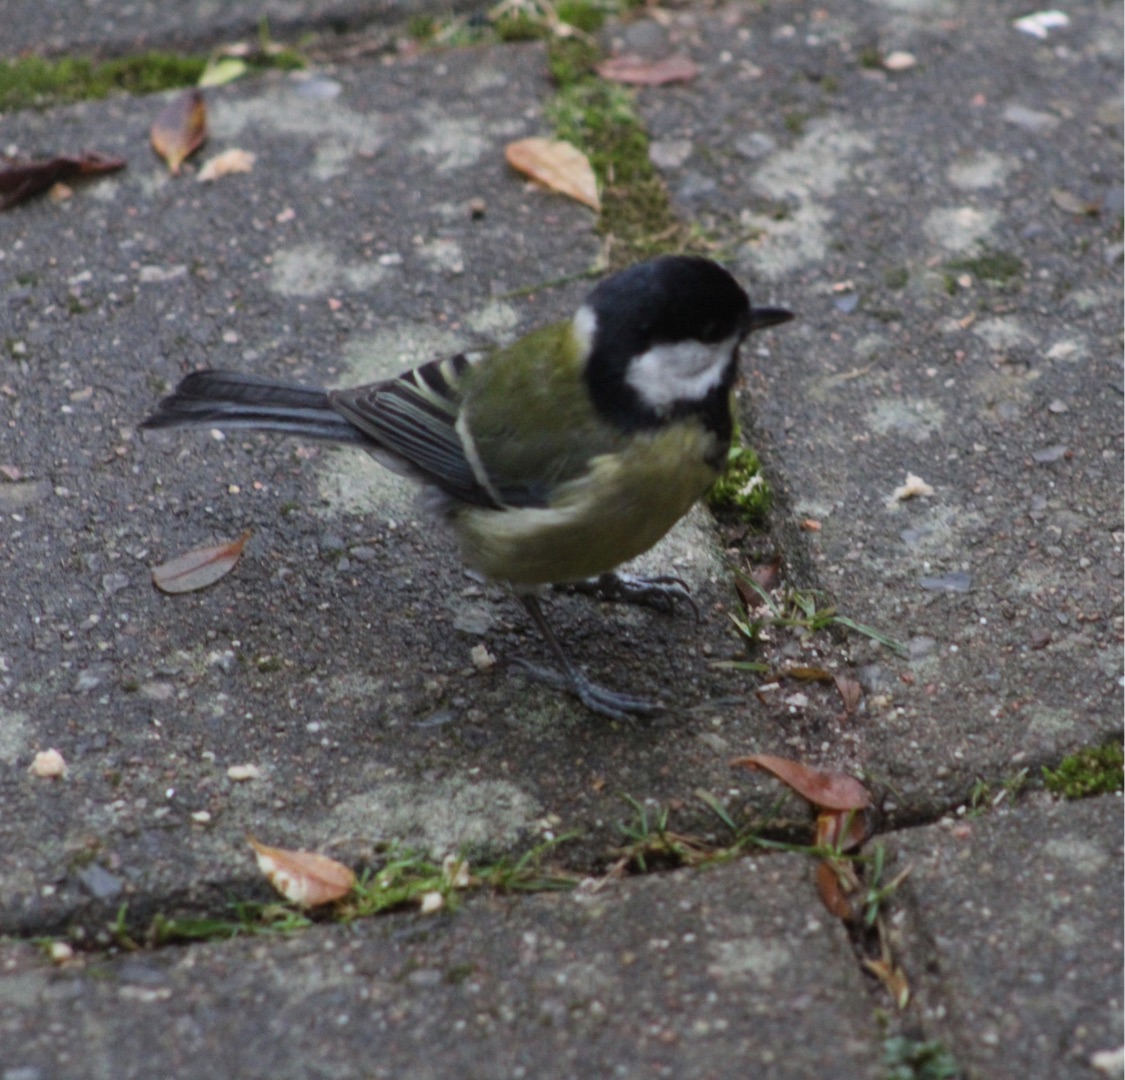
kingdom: Animalia
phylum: Chordata
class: Aves
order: Passeriformes
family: Paridae
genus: Parus
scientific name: Parus major
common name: Musvit
